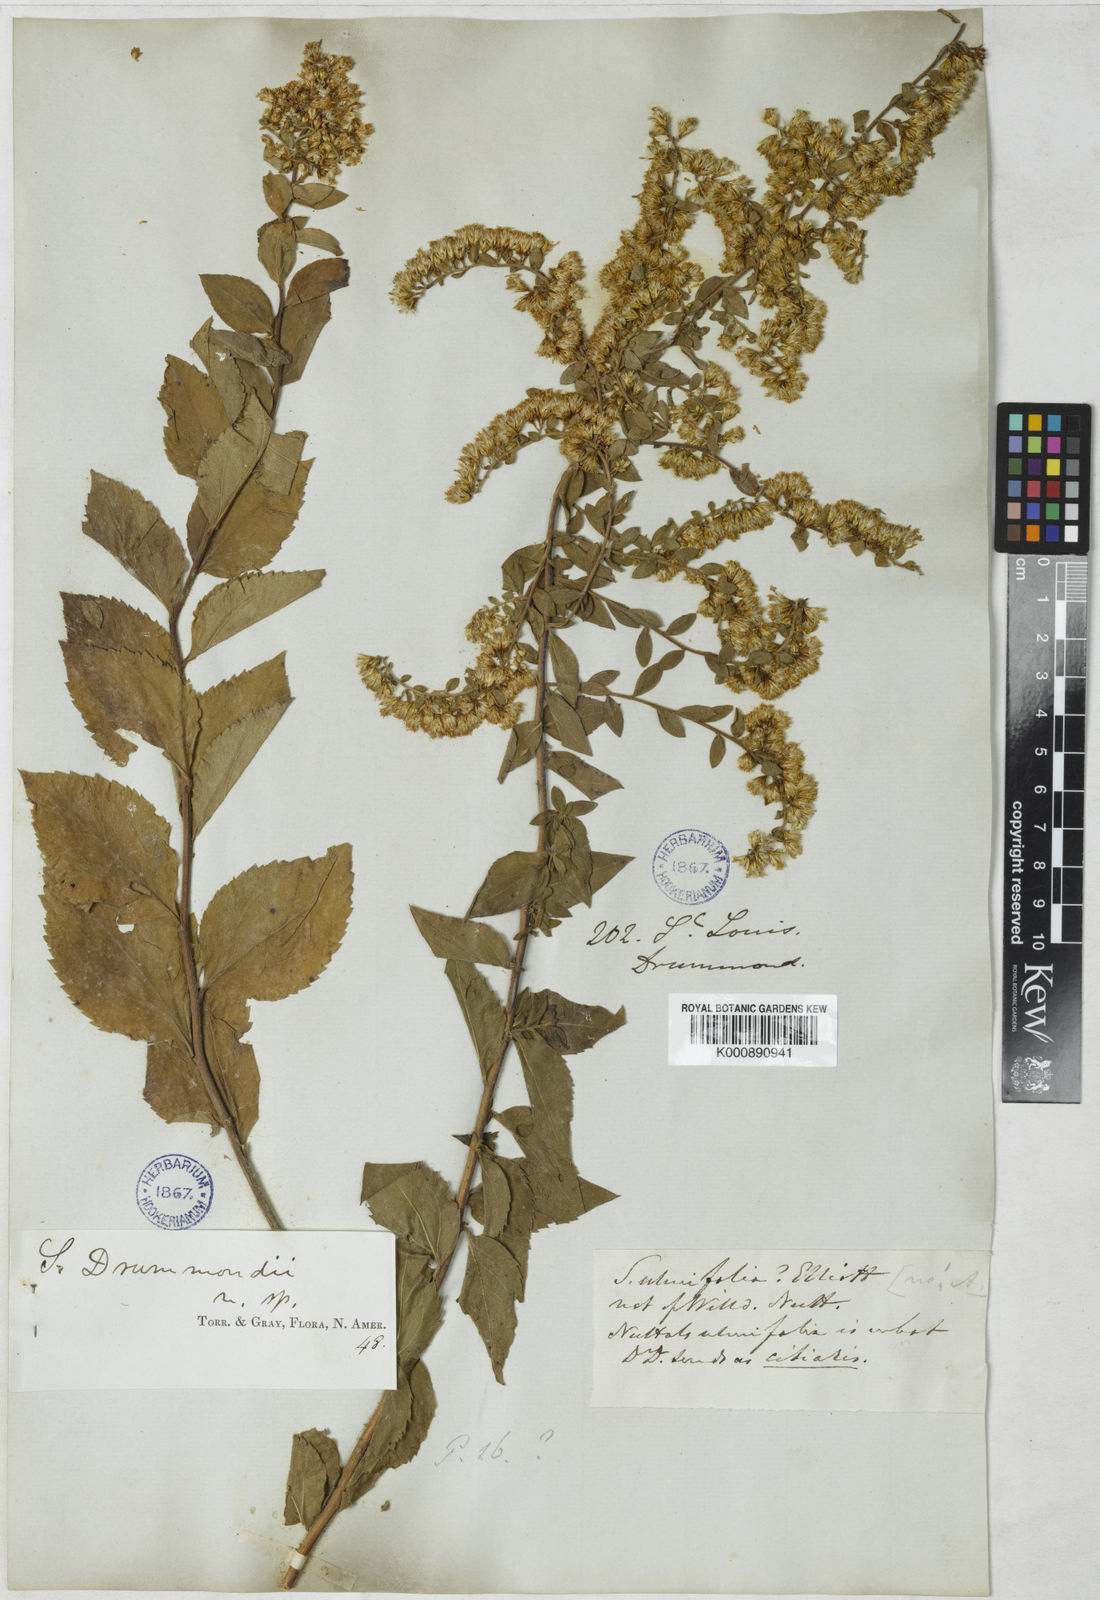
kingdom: Plantae
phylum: Tracheophyta
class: Magnoliopsida
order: Asterales
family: Asteraceae
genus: Solidago
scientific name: Solidago drummondii
